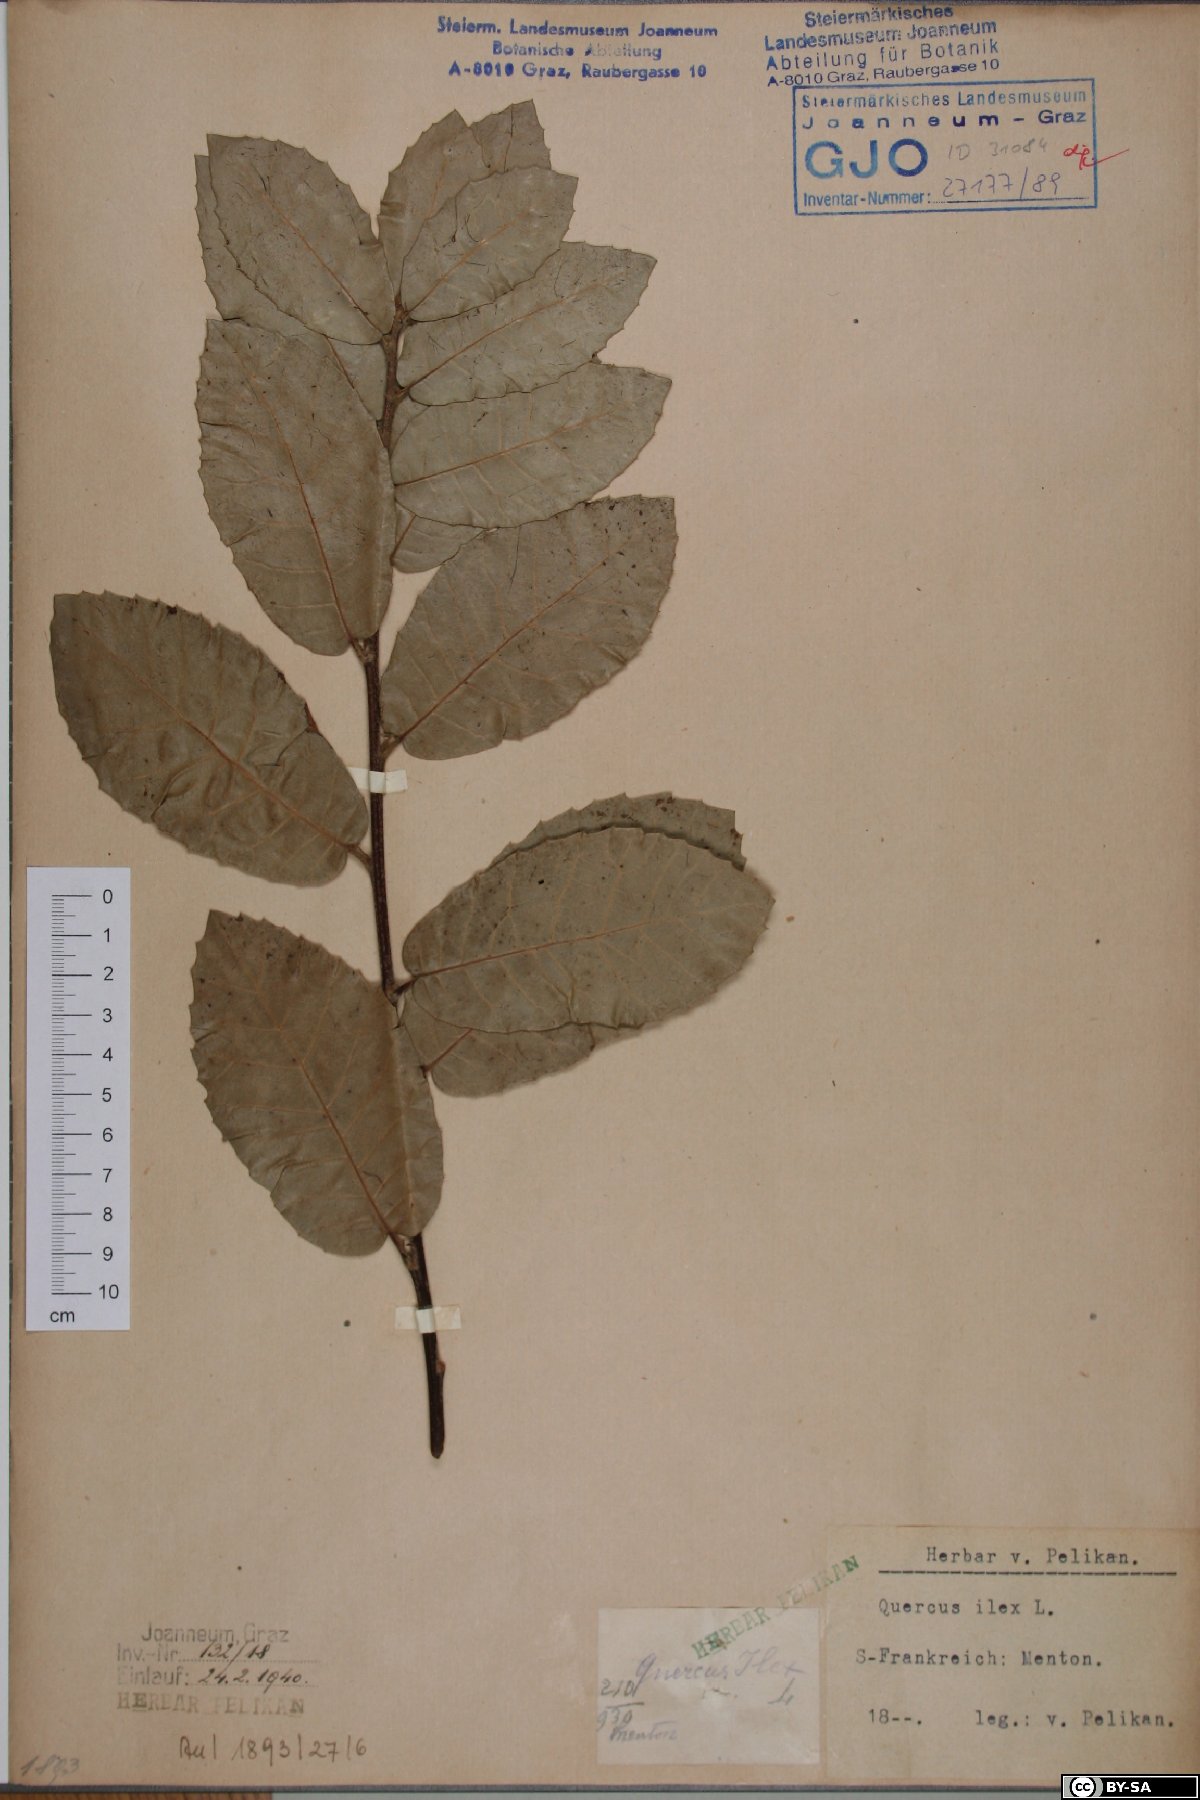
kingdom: Plantae
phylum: Tracheophyta
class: Magnoliopsida
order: Fagales
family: Fagaceae
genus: Quercus
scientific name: Quercus ilex
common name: Evergreen oak
